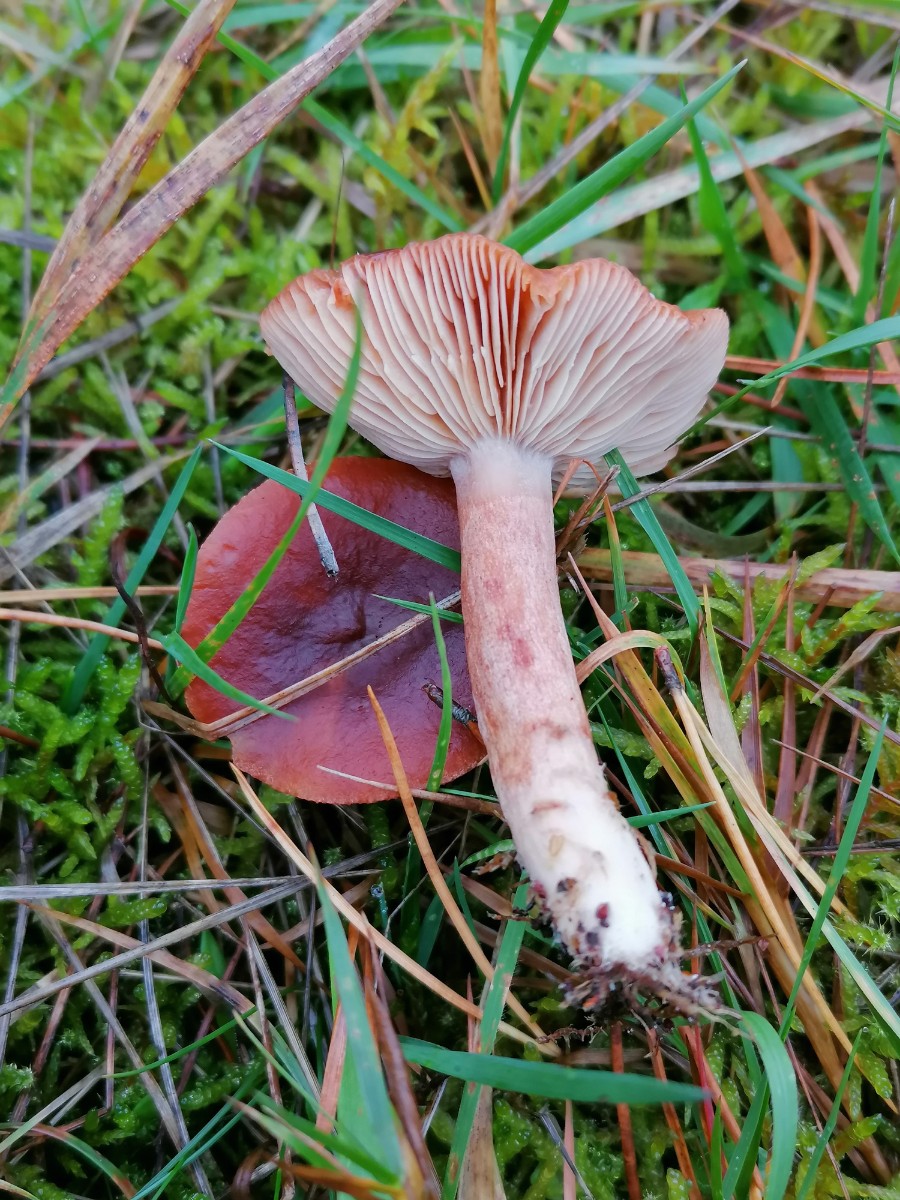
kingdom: Fungi
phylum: Basidiomycota
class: Agaricomycetes
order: Russulales
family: Russulaceae
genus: Lactarius
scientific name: Lactarius rufus
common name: rødbrun mælkehat
